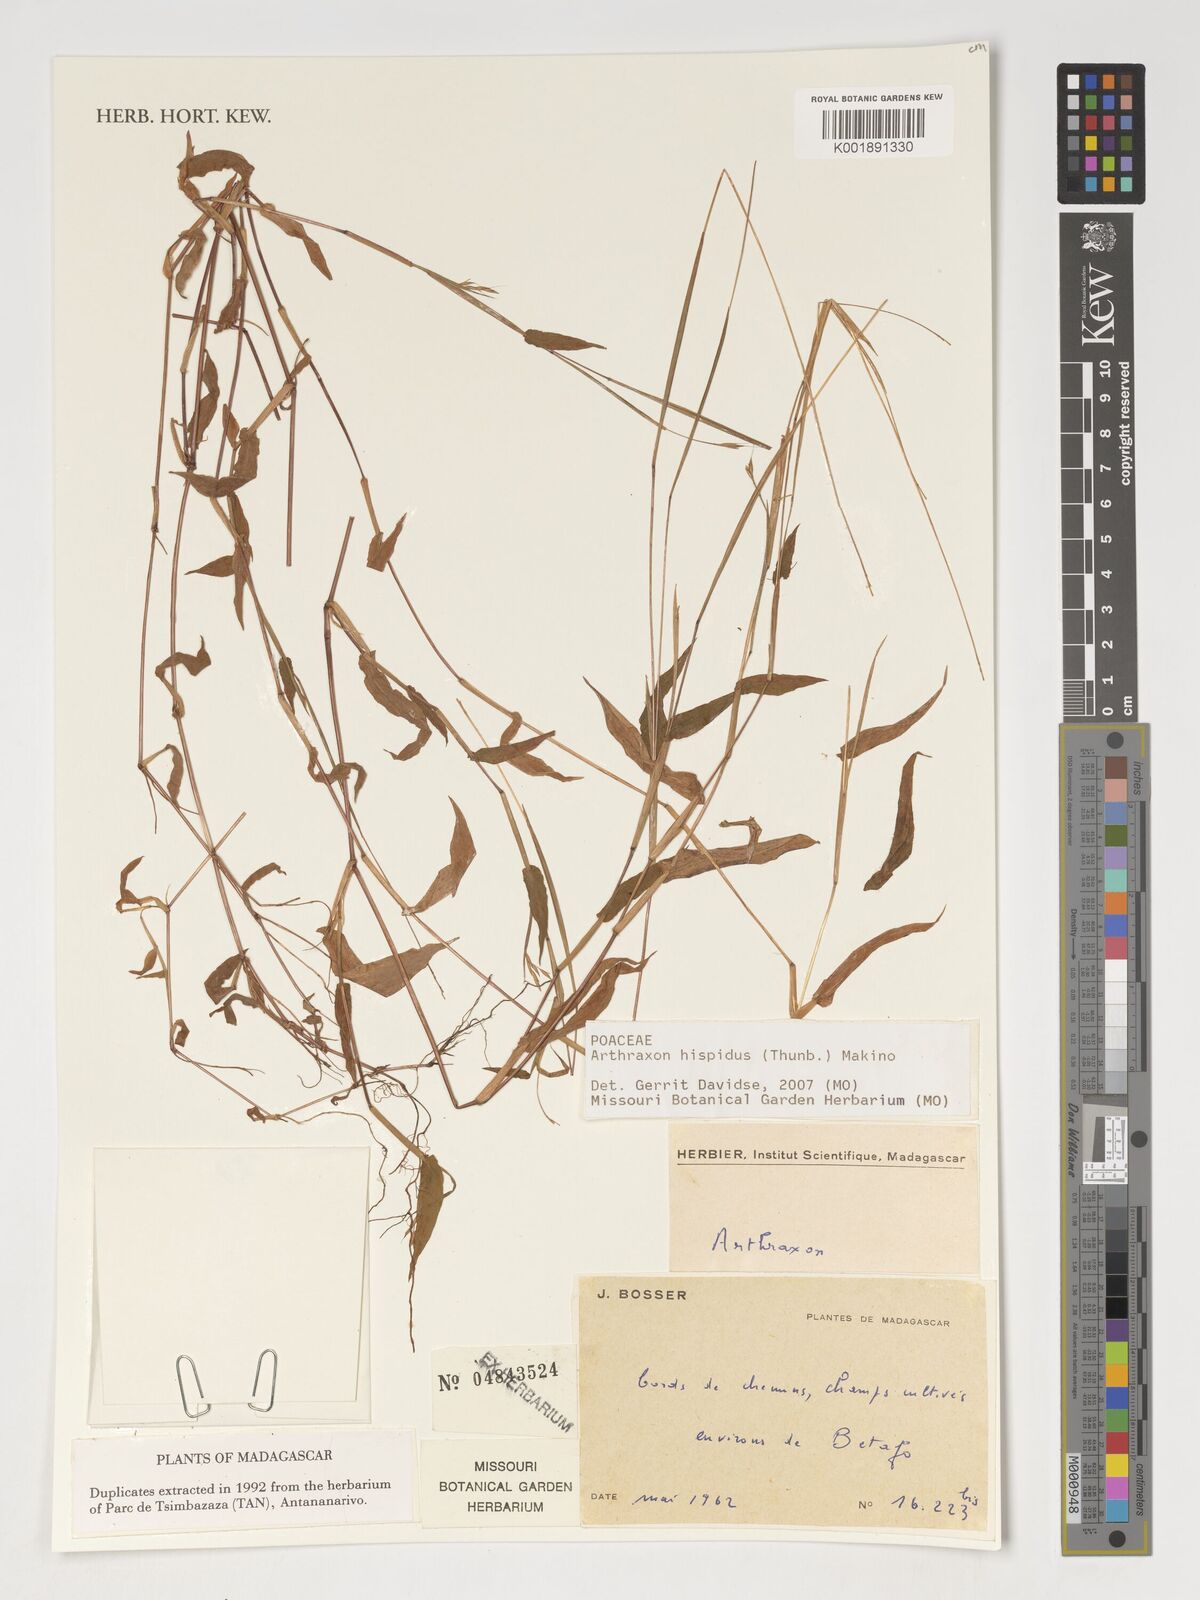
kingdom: Plantae
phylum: Tracheophyta
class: Liliopsida
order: Poales
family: Poaceae
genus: Arthraxon
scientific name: Arthraxon hispidus
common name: Small carpgrass
